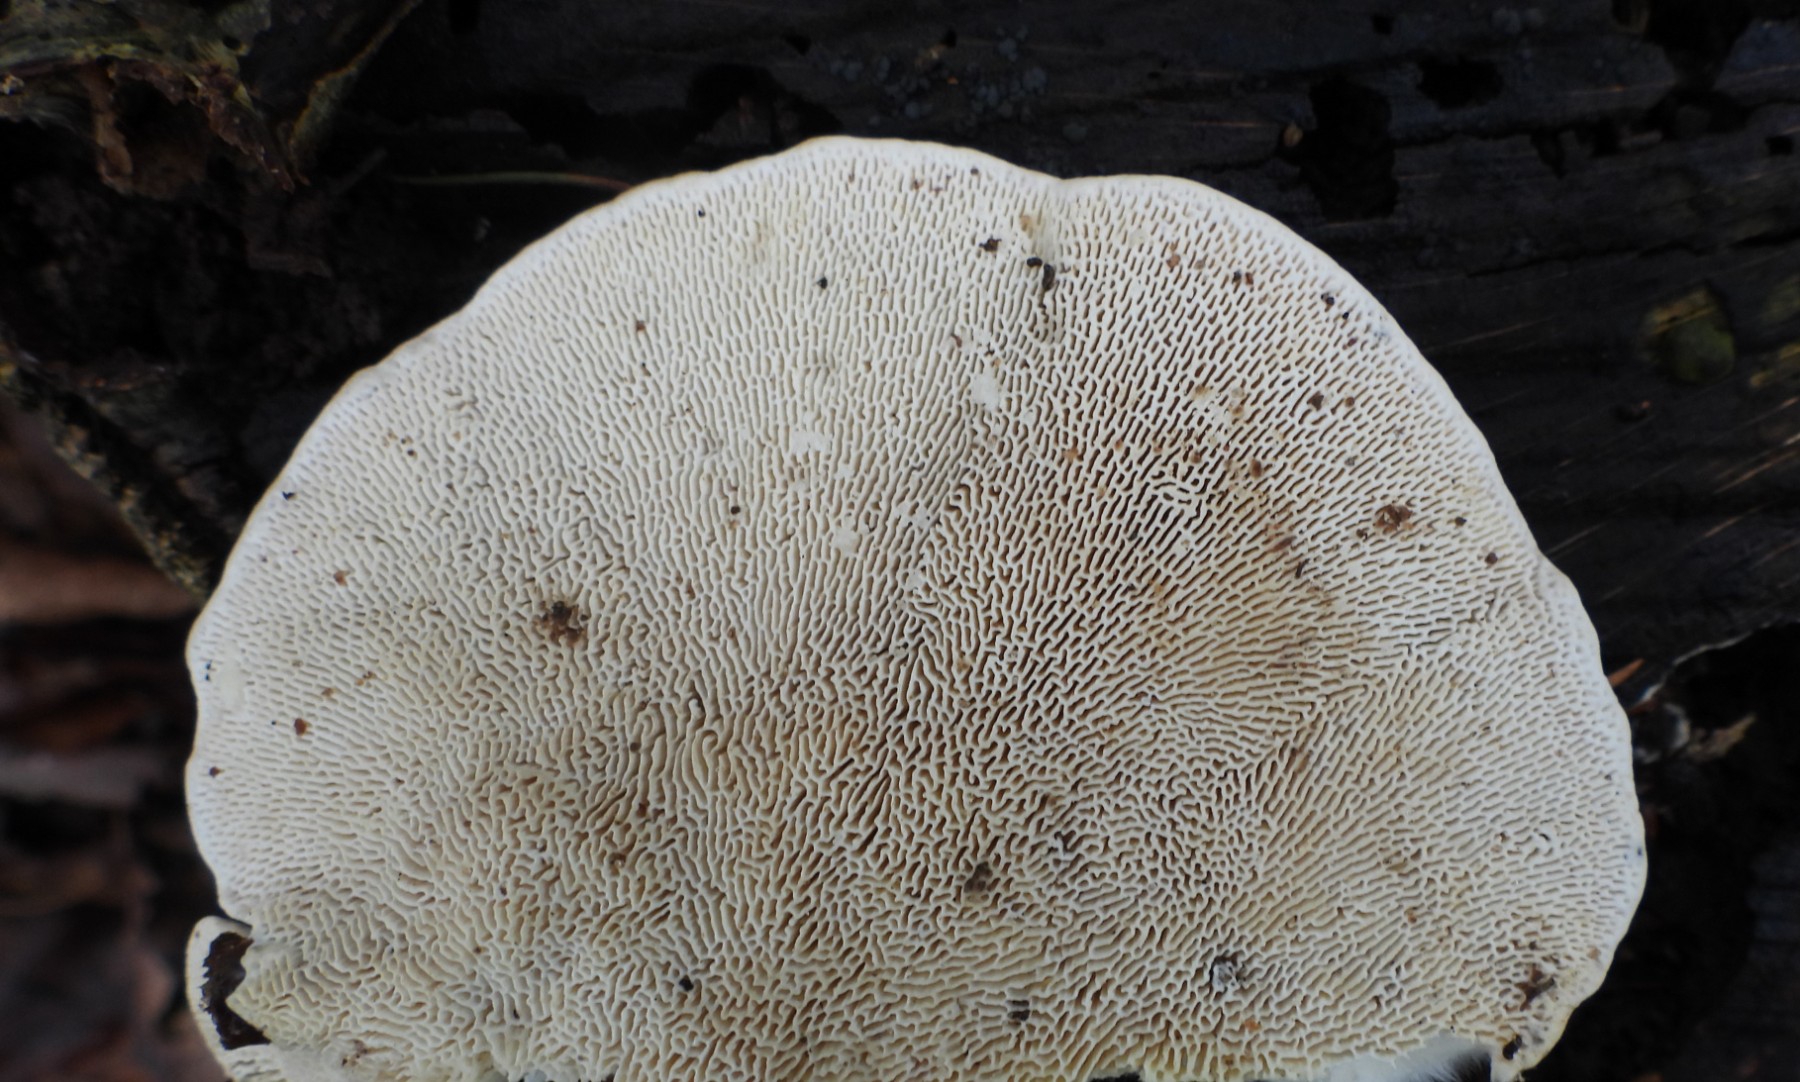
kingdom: Fungi
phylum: Basidiomycota
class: Agaricomycetes
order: Polyporales
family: Polyporaceae
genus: Trametes
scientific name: Trametes gibbosa
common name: puklet læderporesvamp
